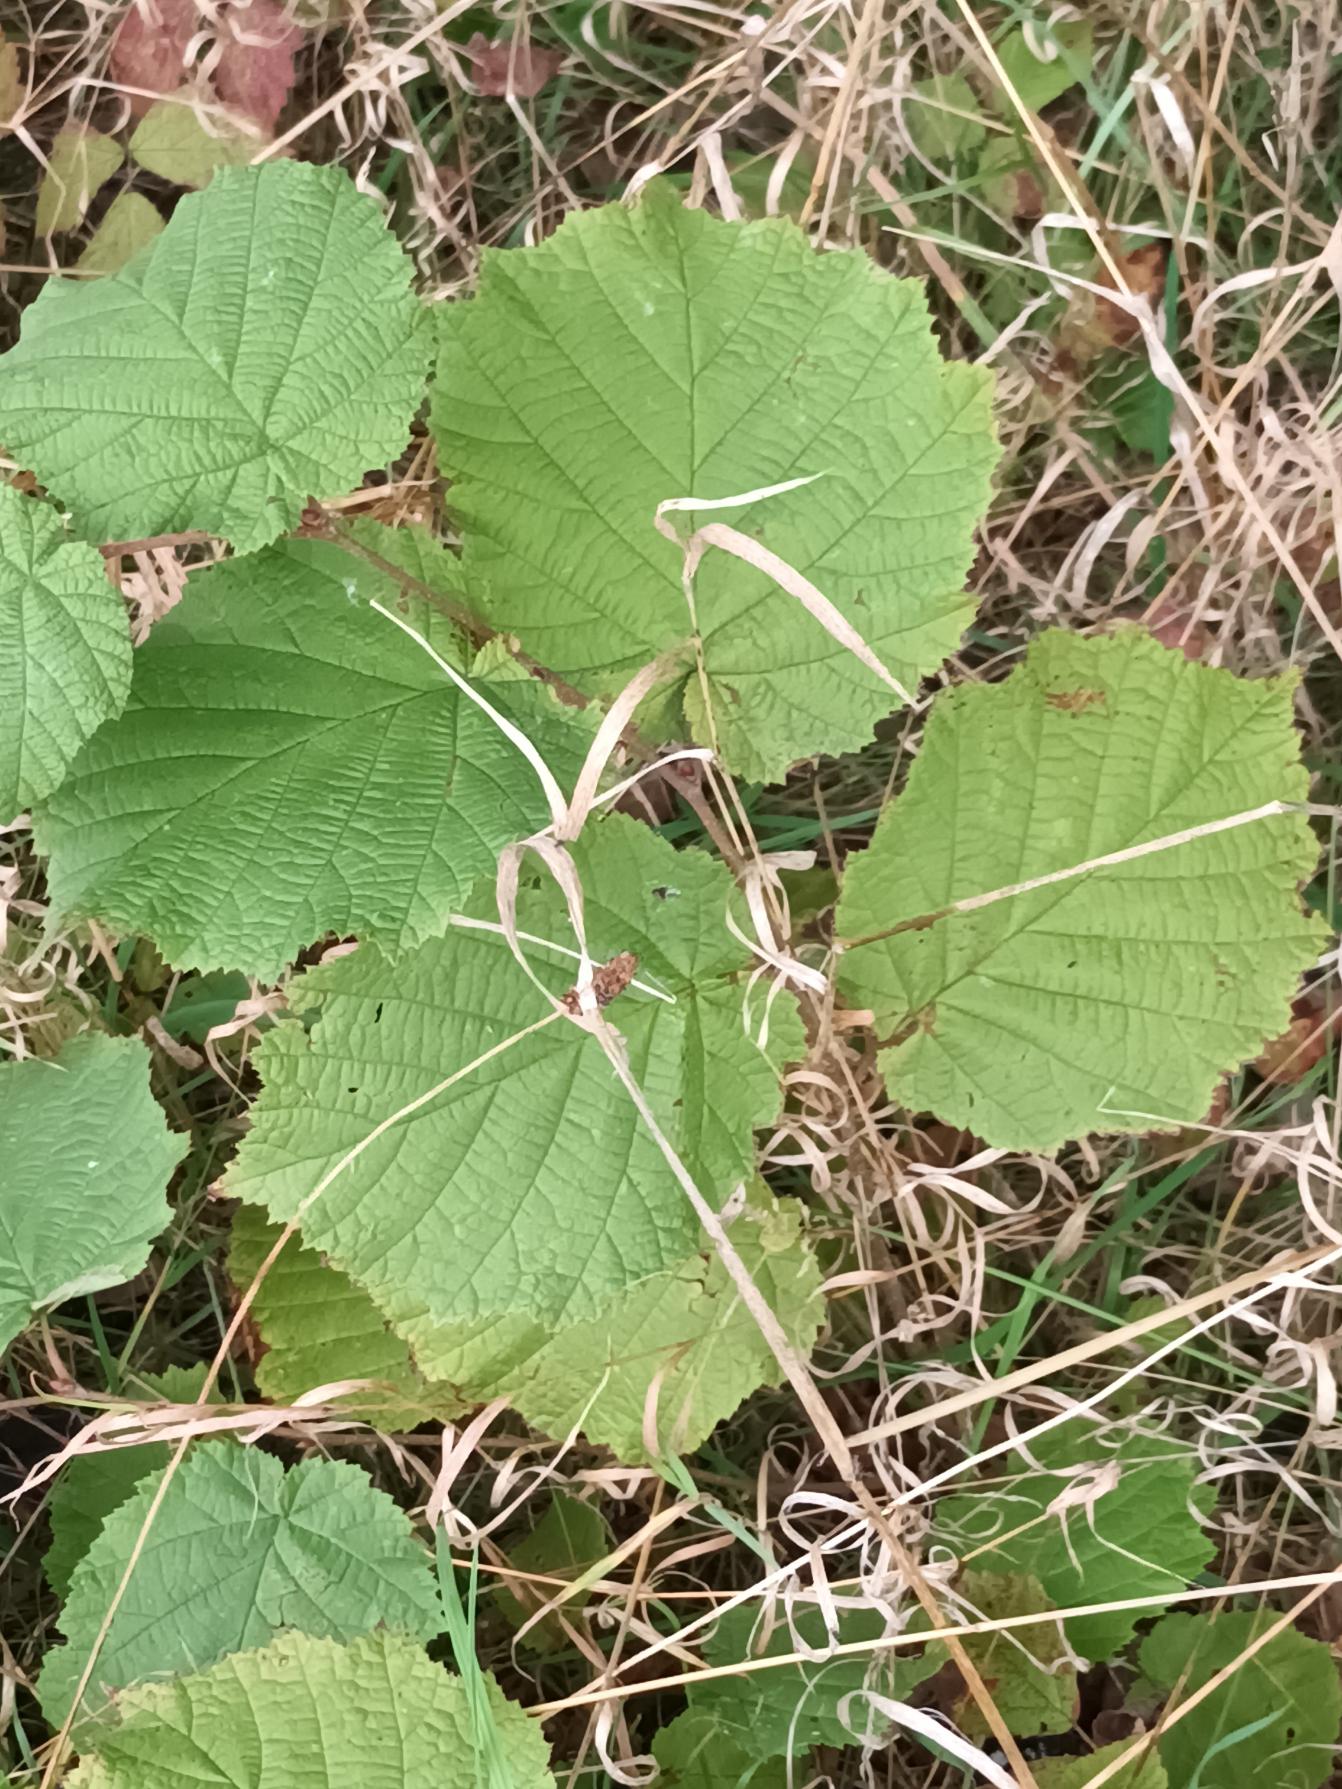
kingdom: Plantae
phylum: Tracheophyta
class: Magnoliopsida
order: Fagales
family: Betulaceae
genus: Corylus
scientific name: Corylus avellana
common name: Hassel
